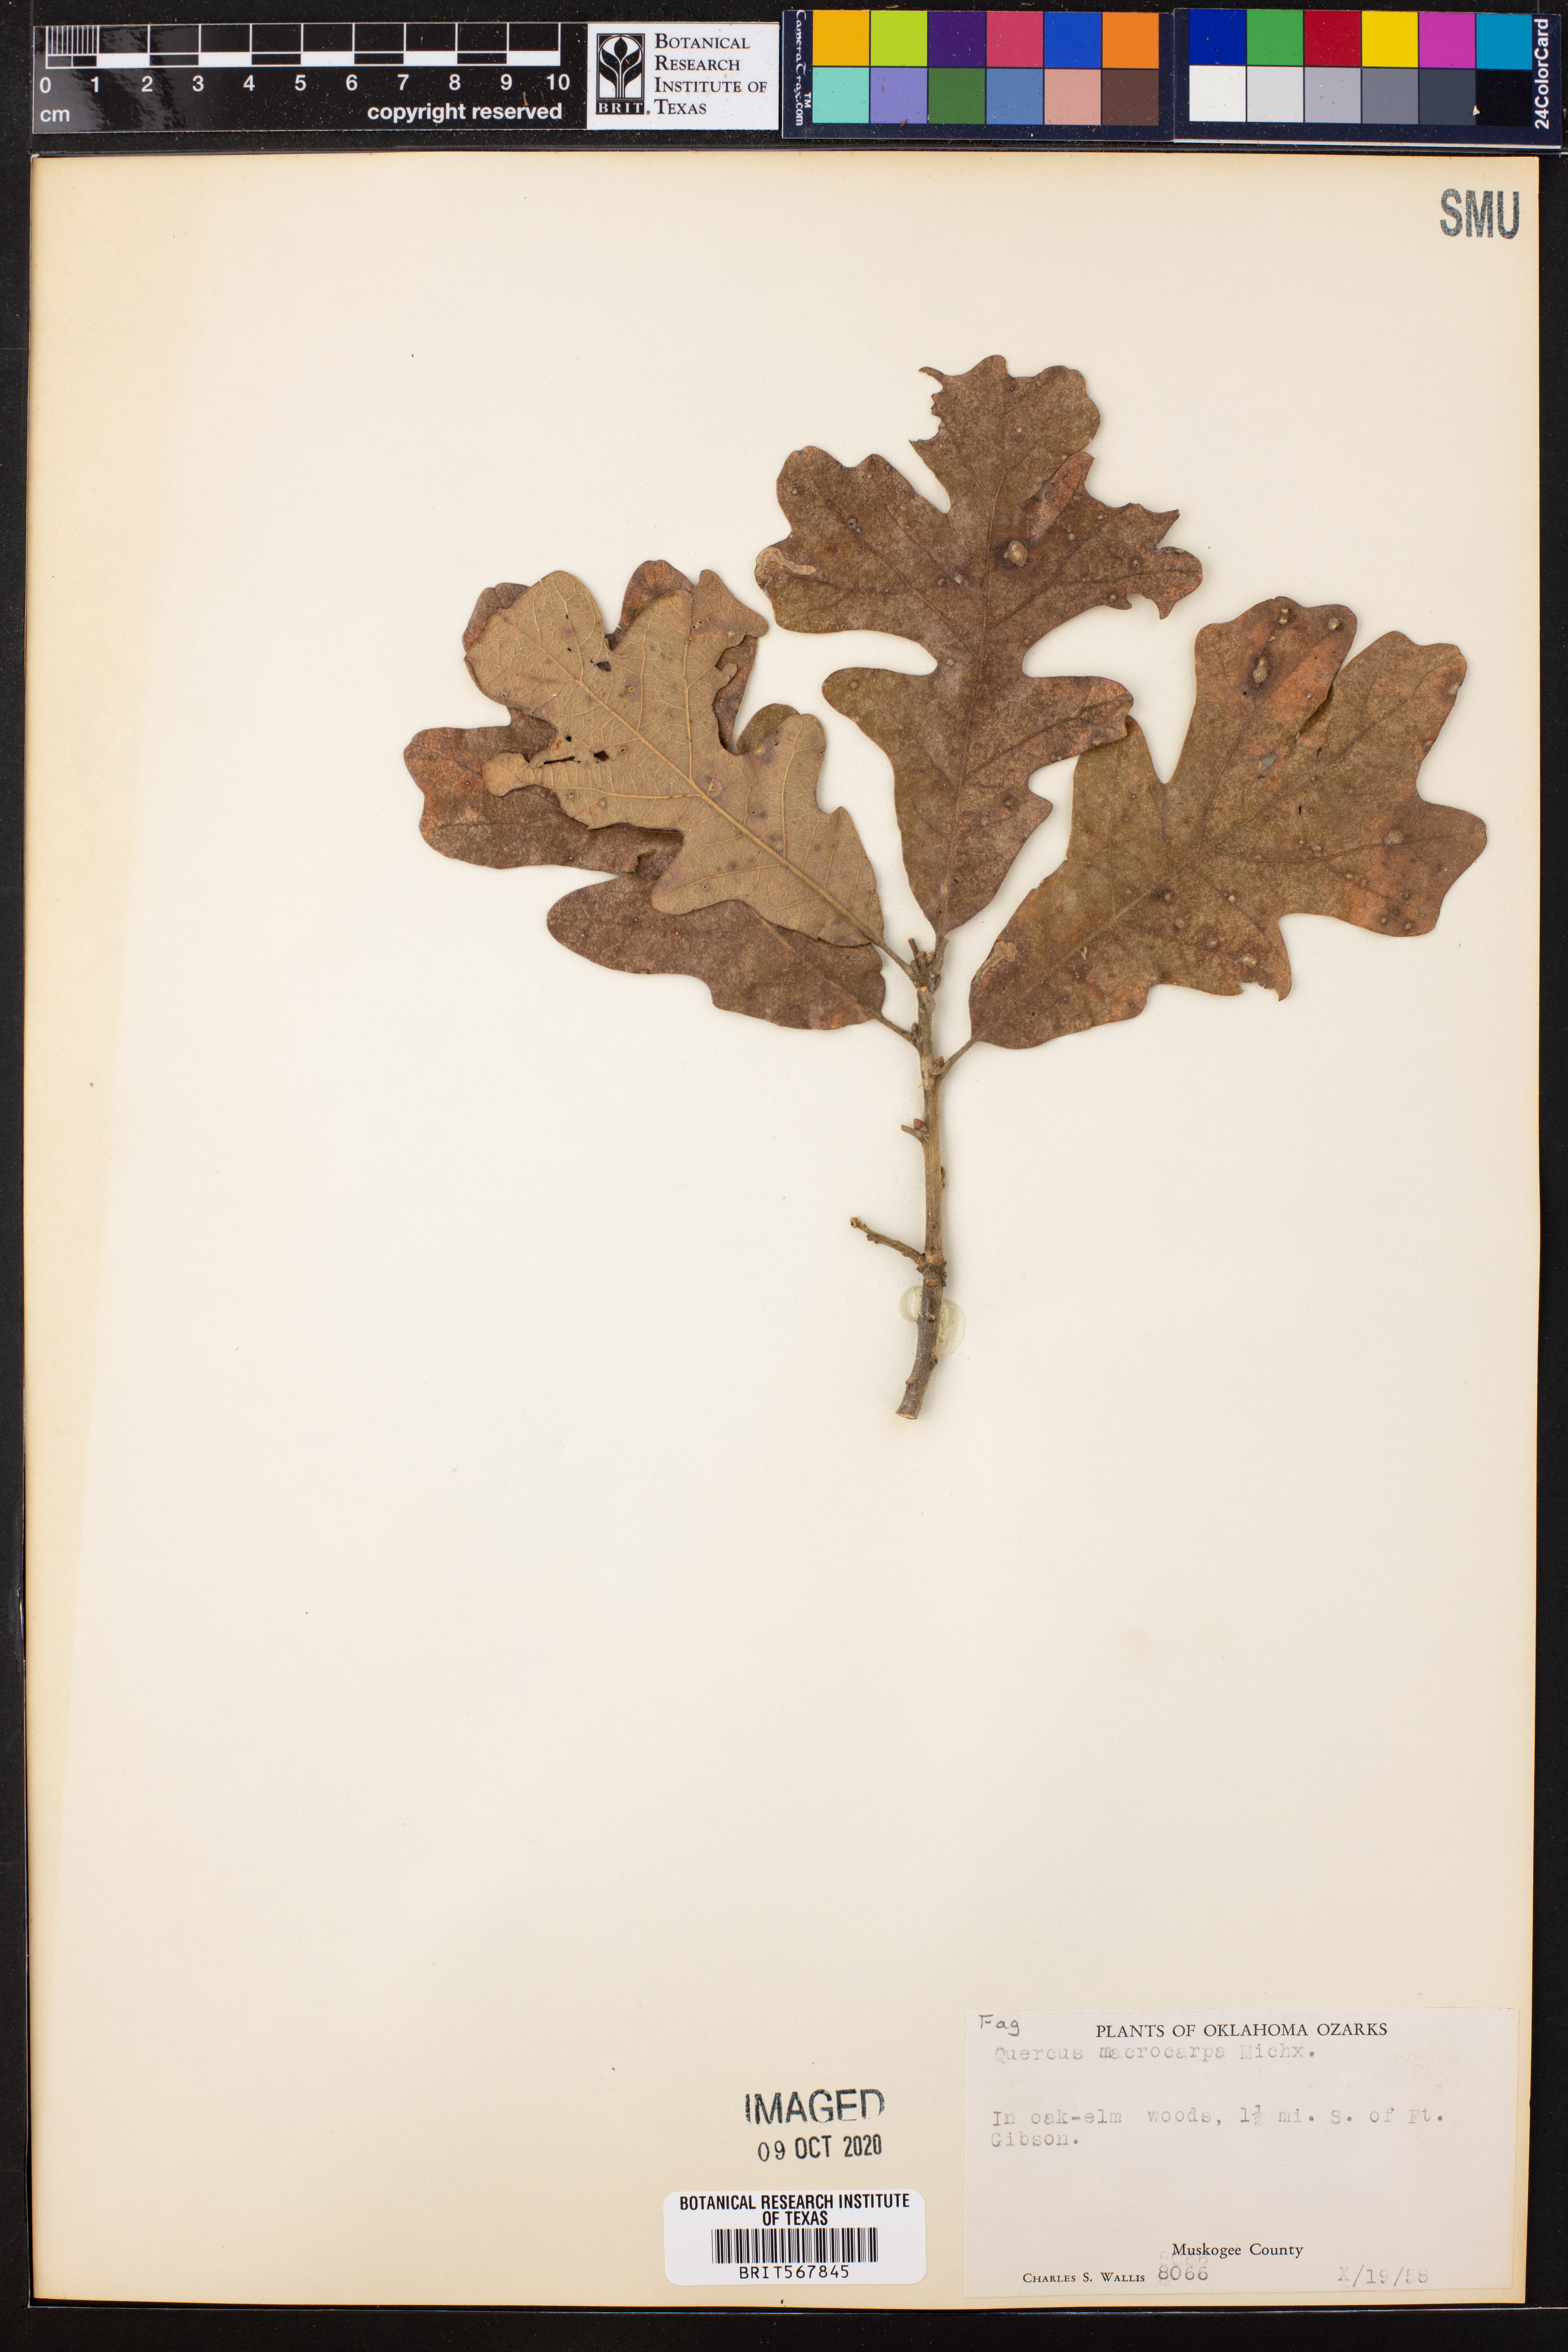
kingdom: Plantae
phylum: Tracheophyta
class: Magnoliopsida
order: Fagales
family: Fagaceae
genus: Quercus
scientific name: Quercus macrocarpa
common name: Bur oak
